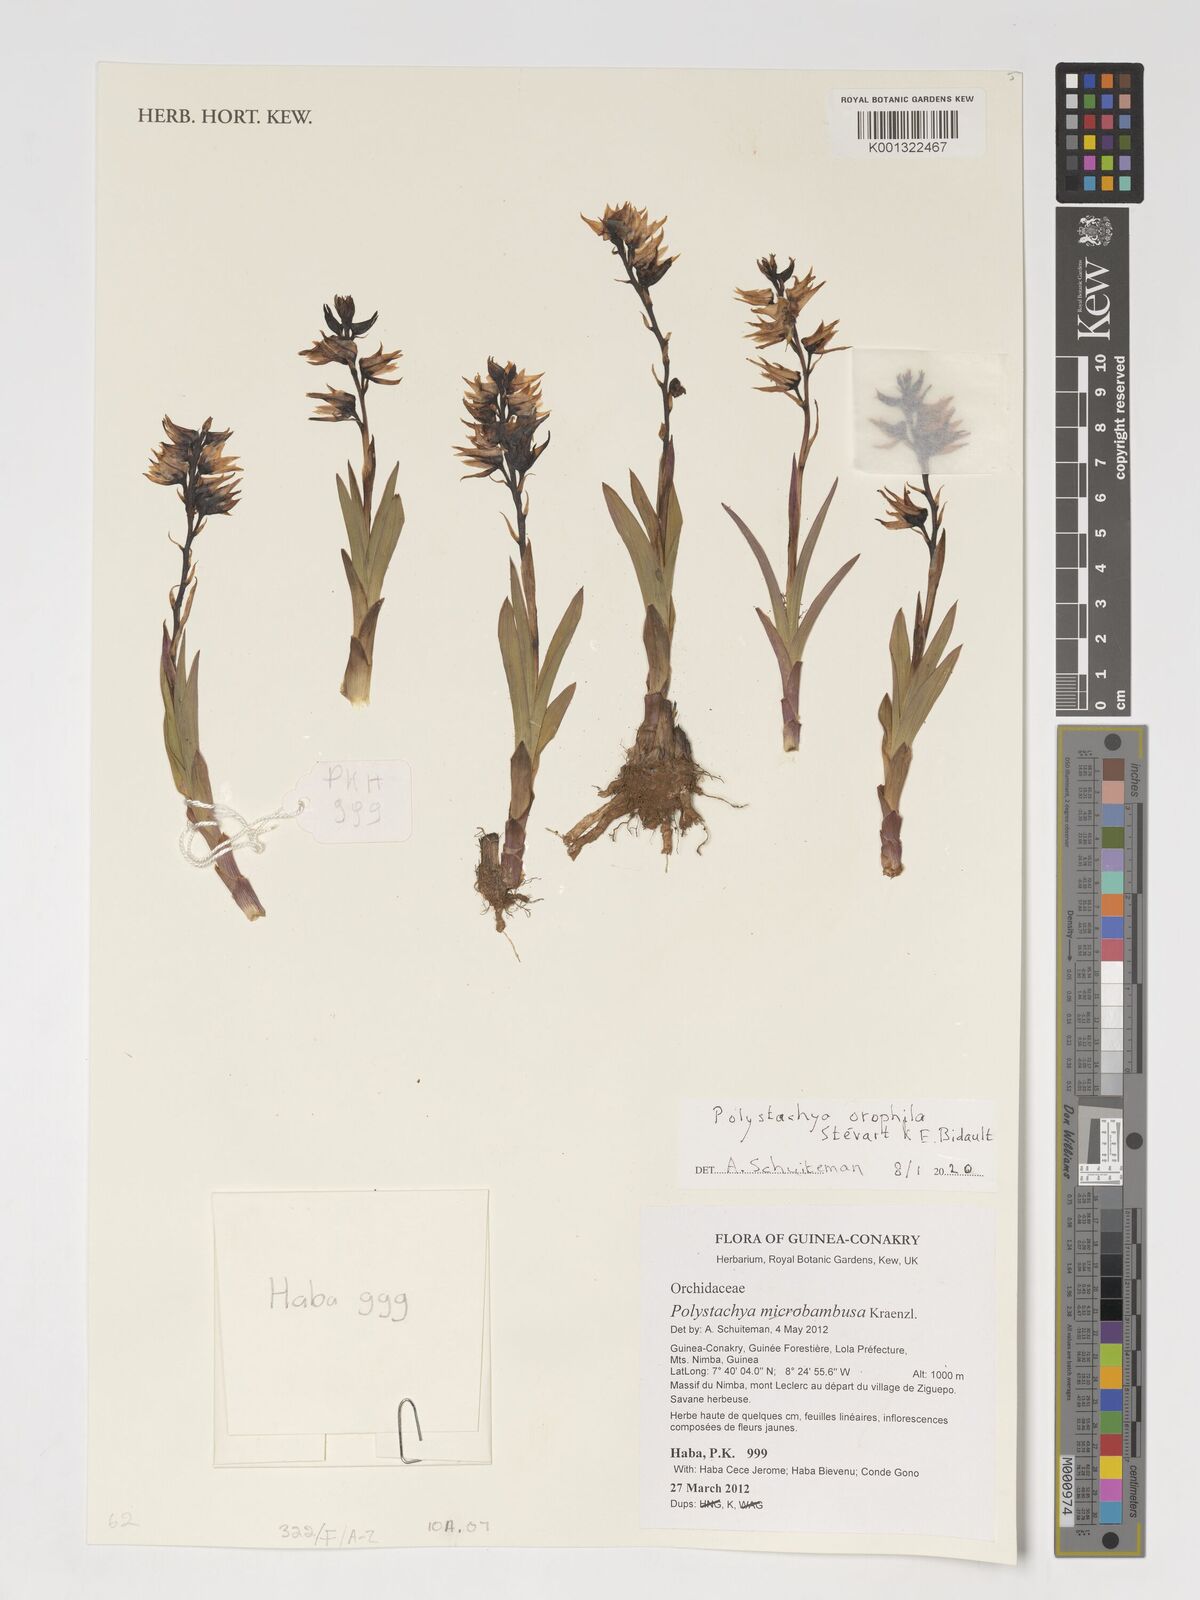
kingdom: Plantae
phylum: Tracheophyta
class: Liliopsida
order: Asparagales
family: Orchidaceae
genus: Polystachya
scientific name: Polystachya microbambusa
